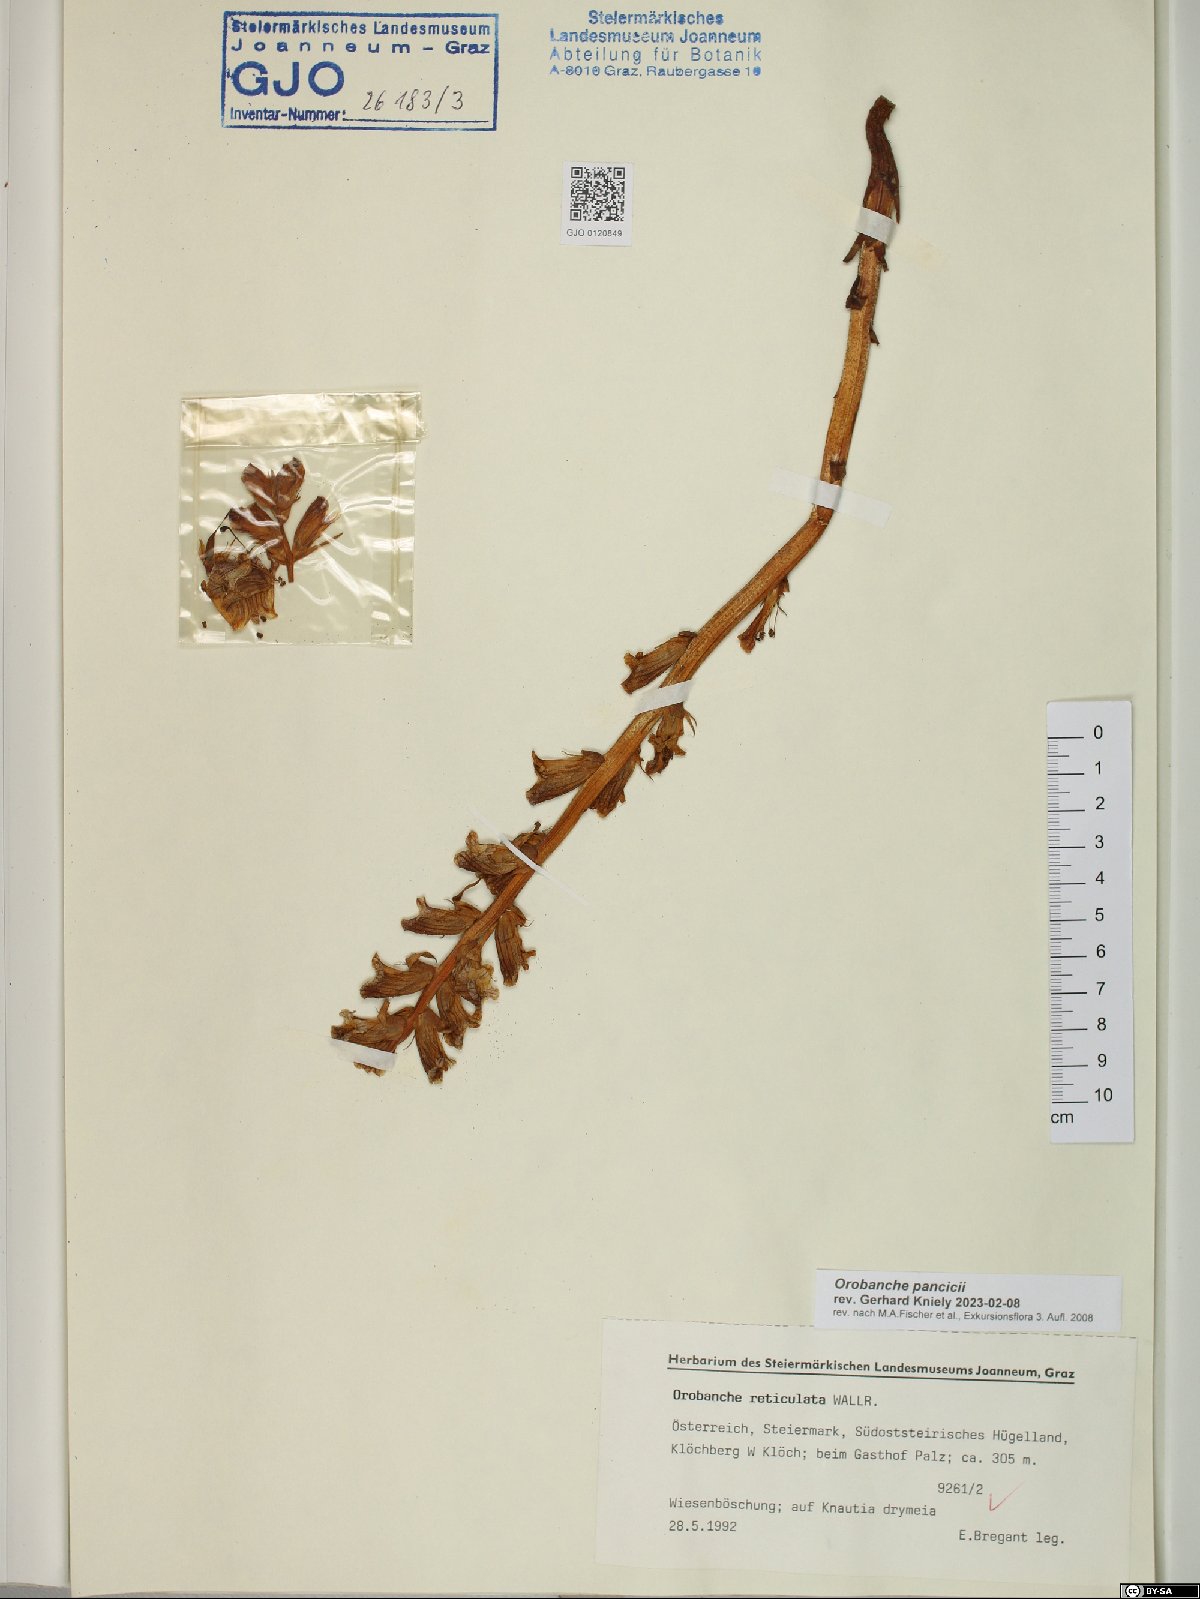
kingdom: Plantae
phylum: Tracheophyta
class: Magnoliopsida
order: Lamiales
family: Orobanchaceae
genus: Orobanche
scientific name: Orobanche pancicii
